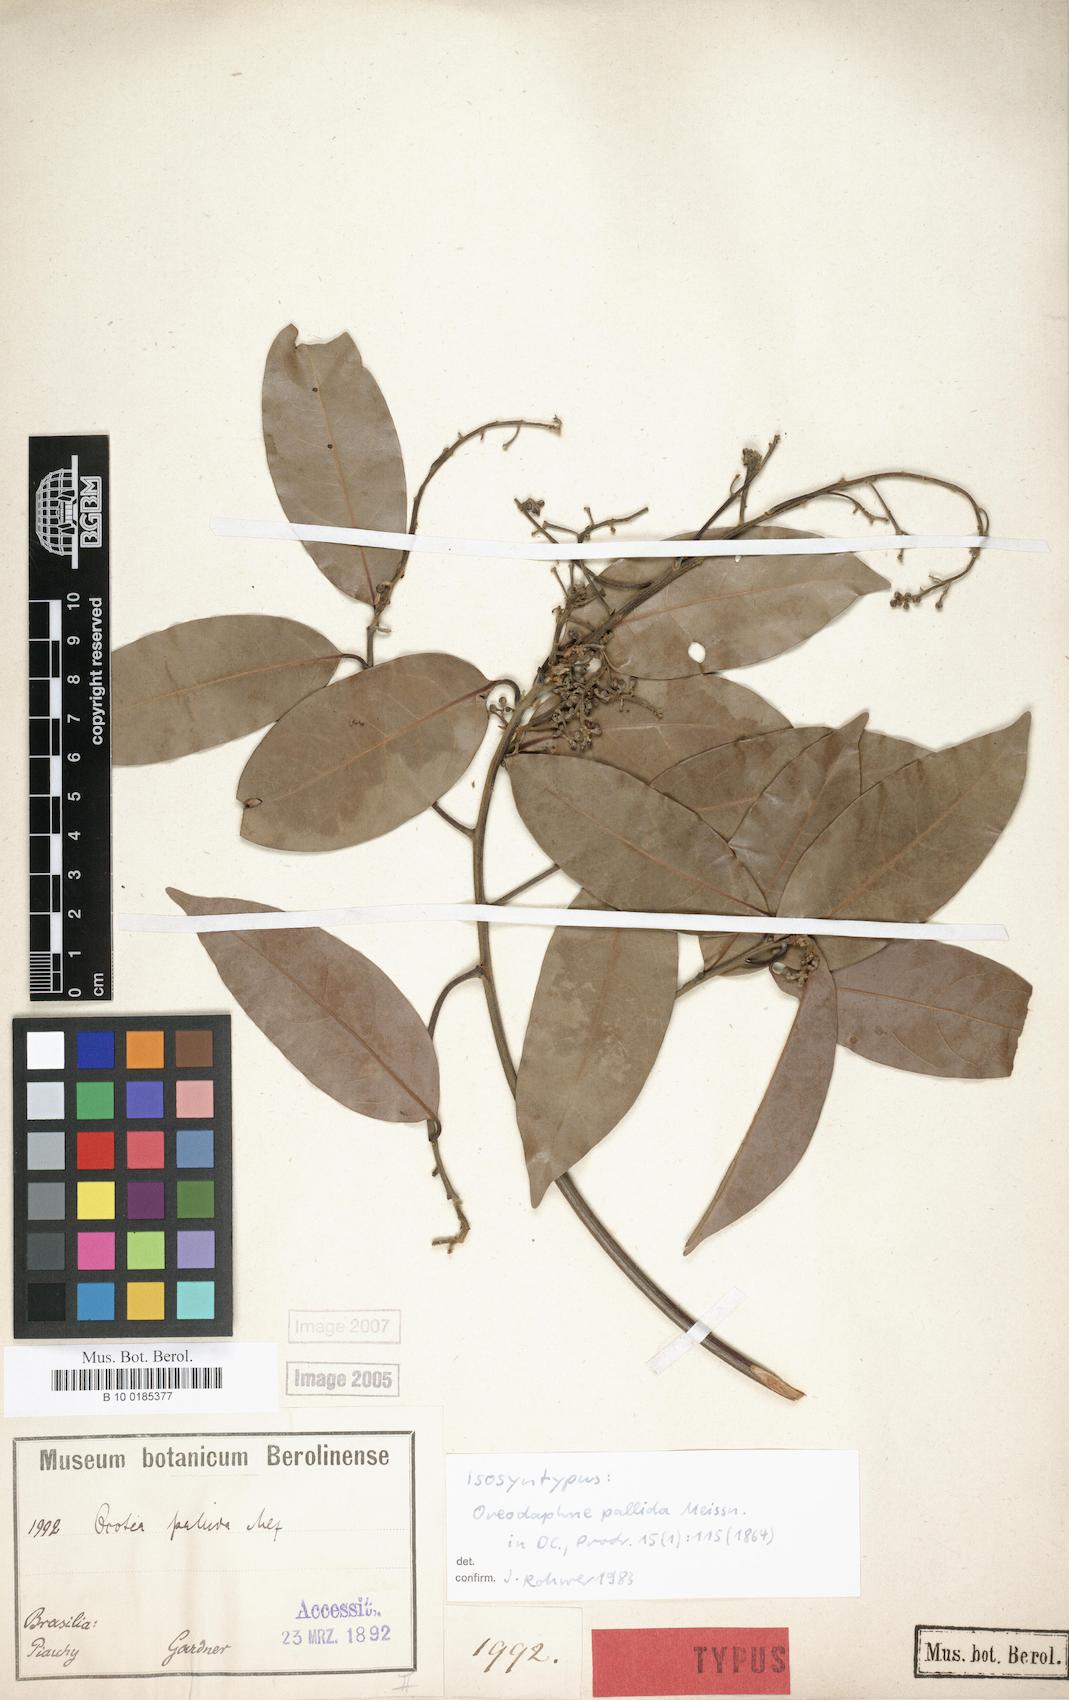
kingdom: Plantae
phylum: Tracheophyta
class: Magnoliopsida
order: Laurales
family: Lauraceae
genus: Ocotea
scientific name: Ocotea nitida
